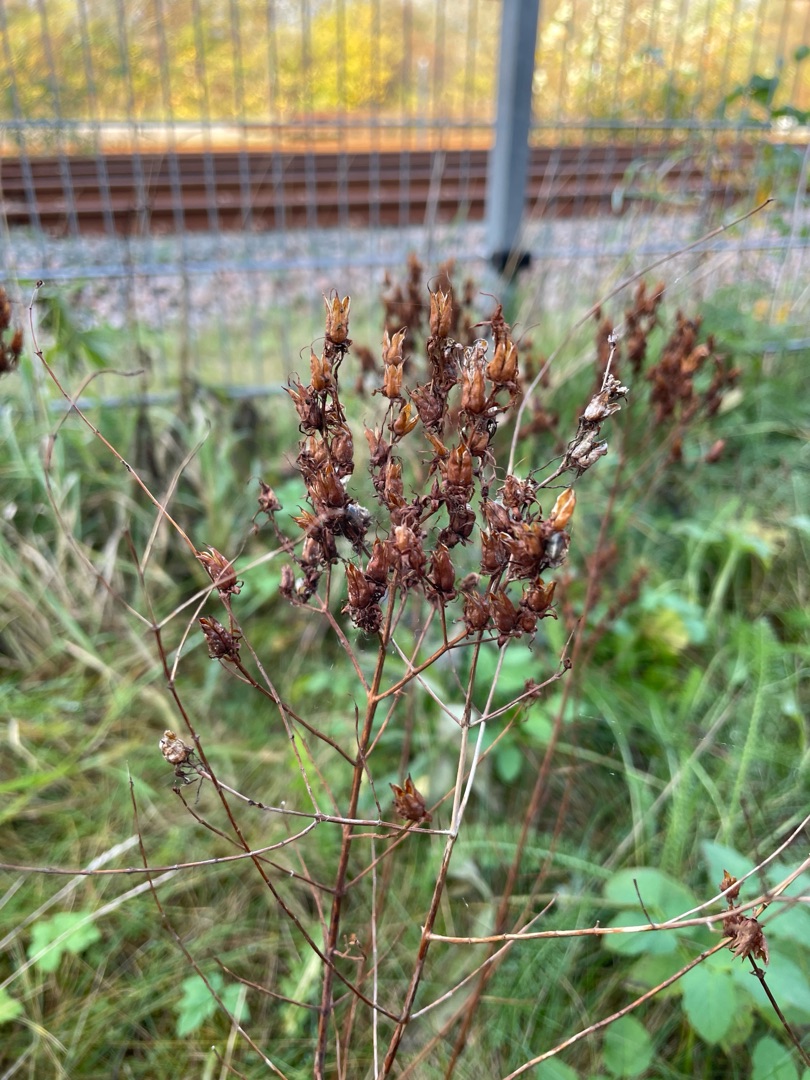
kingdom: Plantae
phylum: Tracheophyta
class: Magnoliopsida
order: Malpighiales
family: Hypericaceae
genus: Hypericum
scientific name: Hypericum perforatum
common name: Prikbladet perikon
